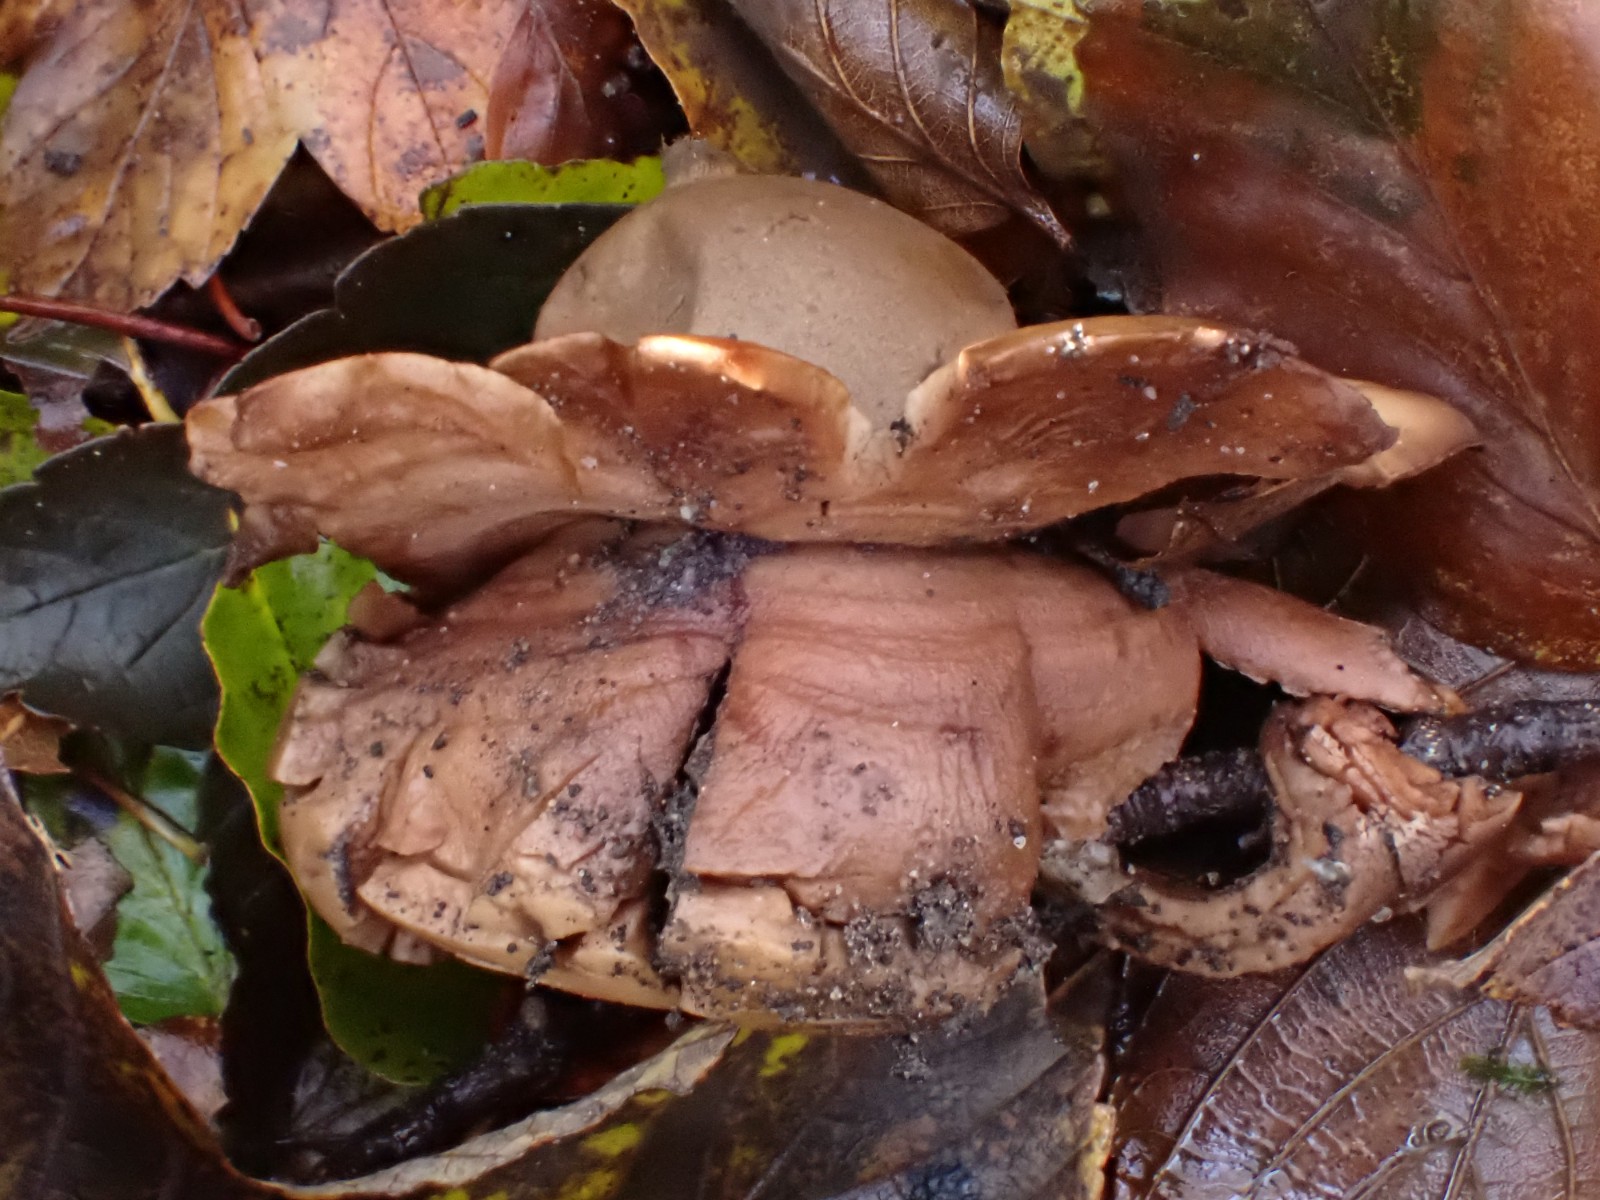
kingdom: Fungi
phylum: Basidiomycota
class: Agaricomycetes
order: Geastrales
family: Geastraceae
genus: Geastrum
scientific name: Geastrum michelianum
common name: kødet stjernebold
